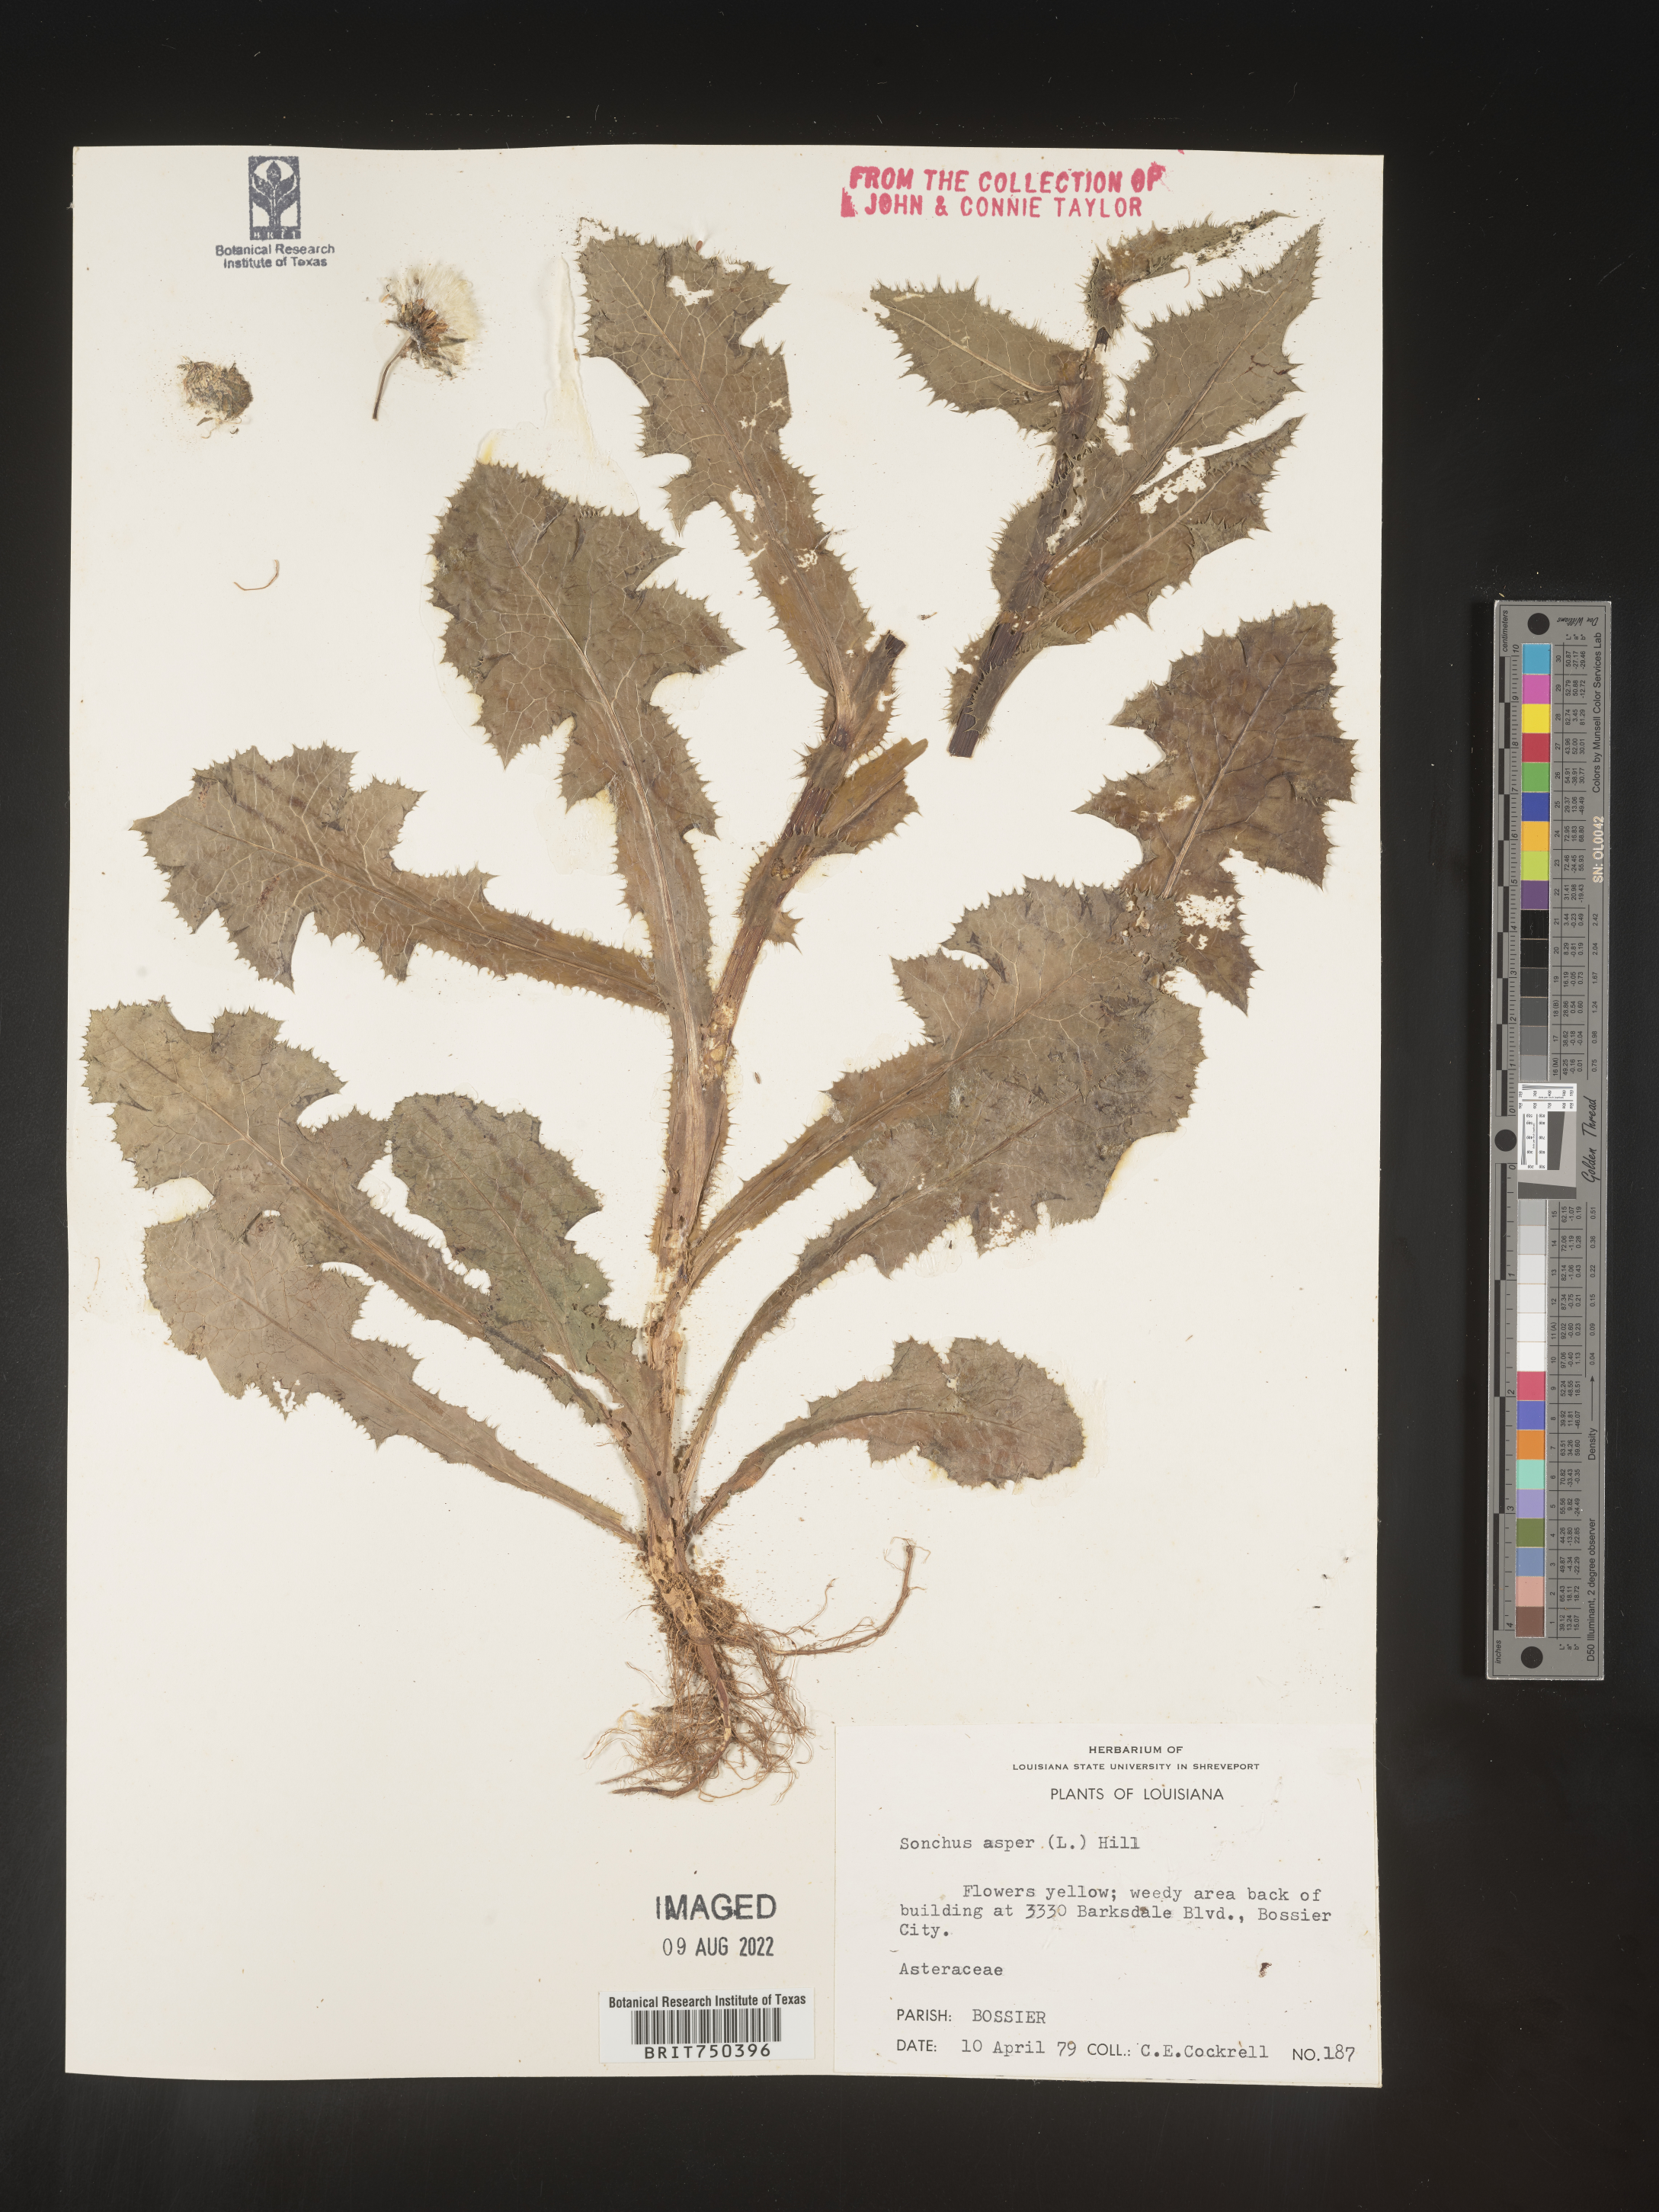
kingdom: Plantae
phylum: Tracheophyta
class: Magnoliopsida
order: Asterales
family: Asteraceae
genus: Sonchus
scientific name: Sonchus asper
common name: Prickly sow-thistle
